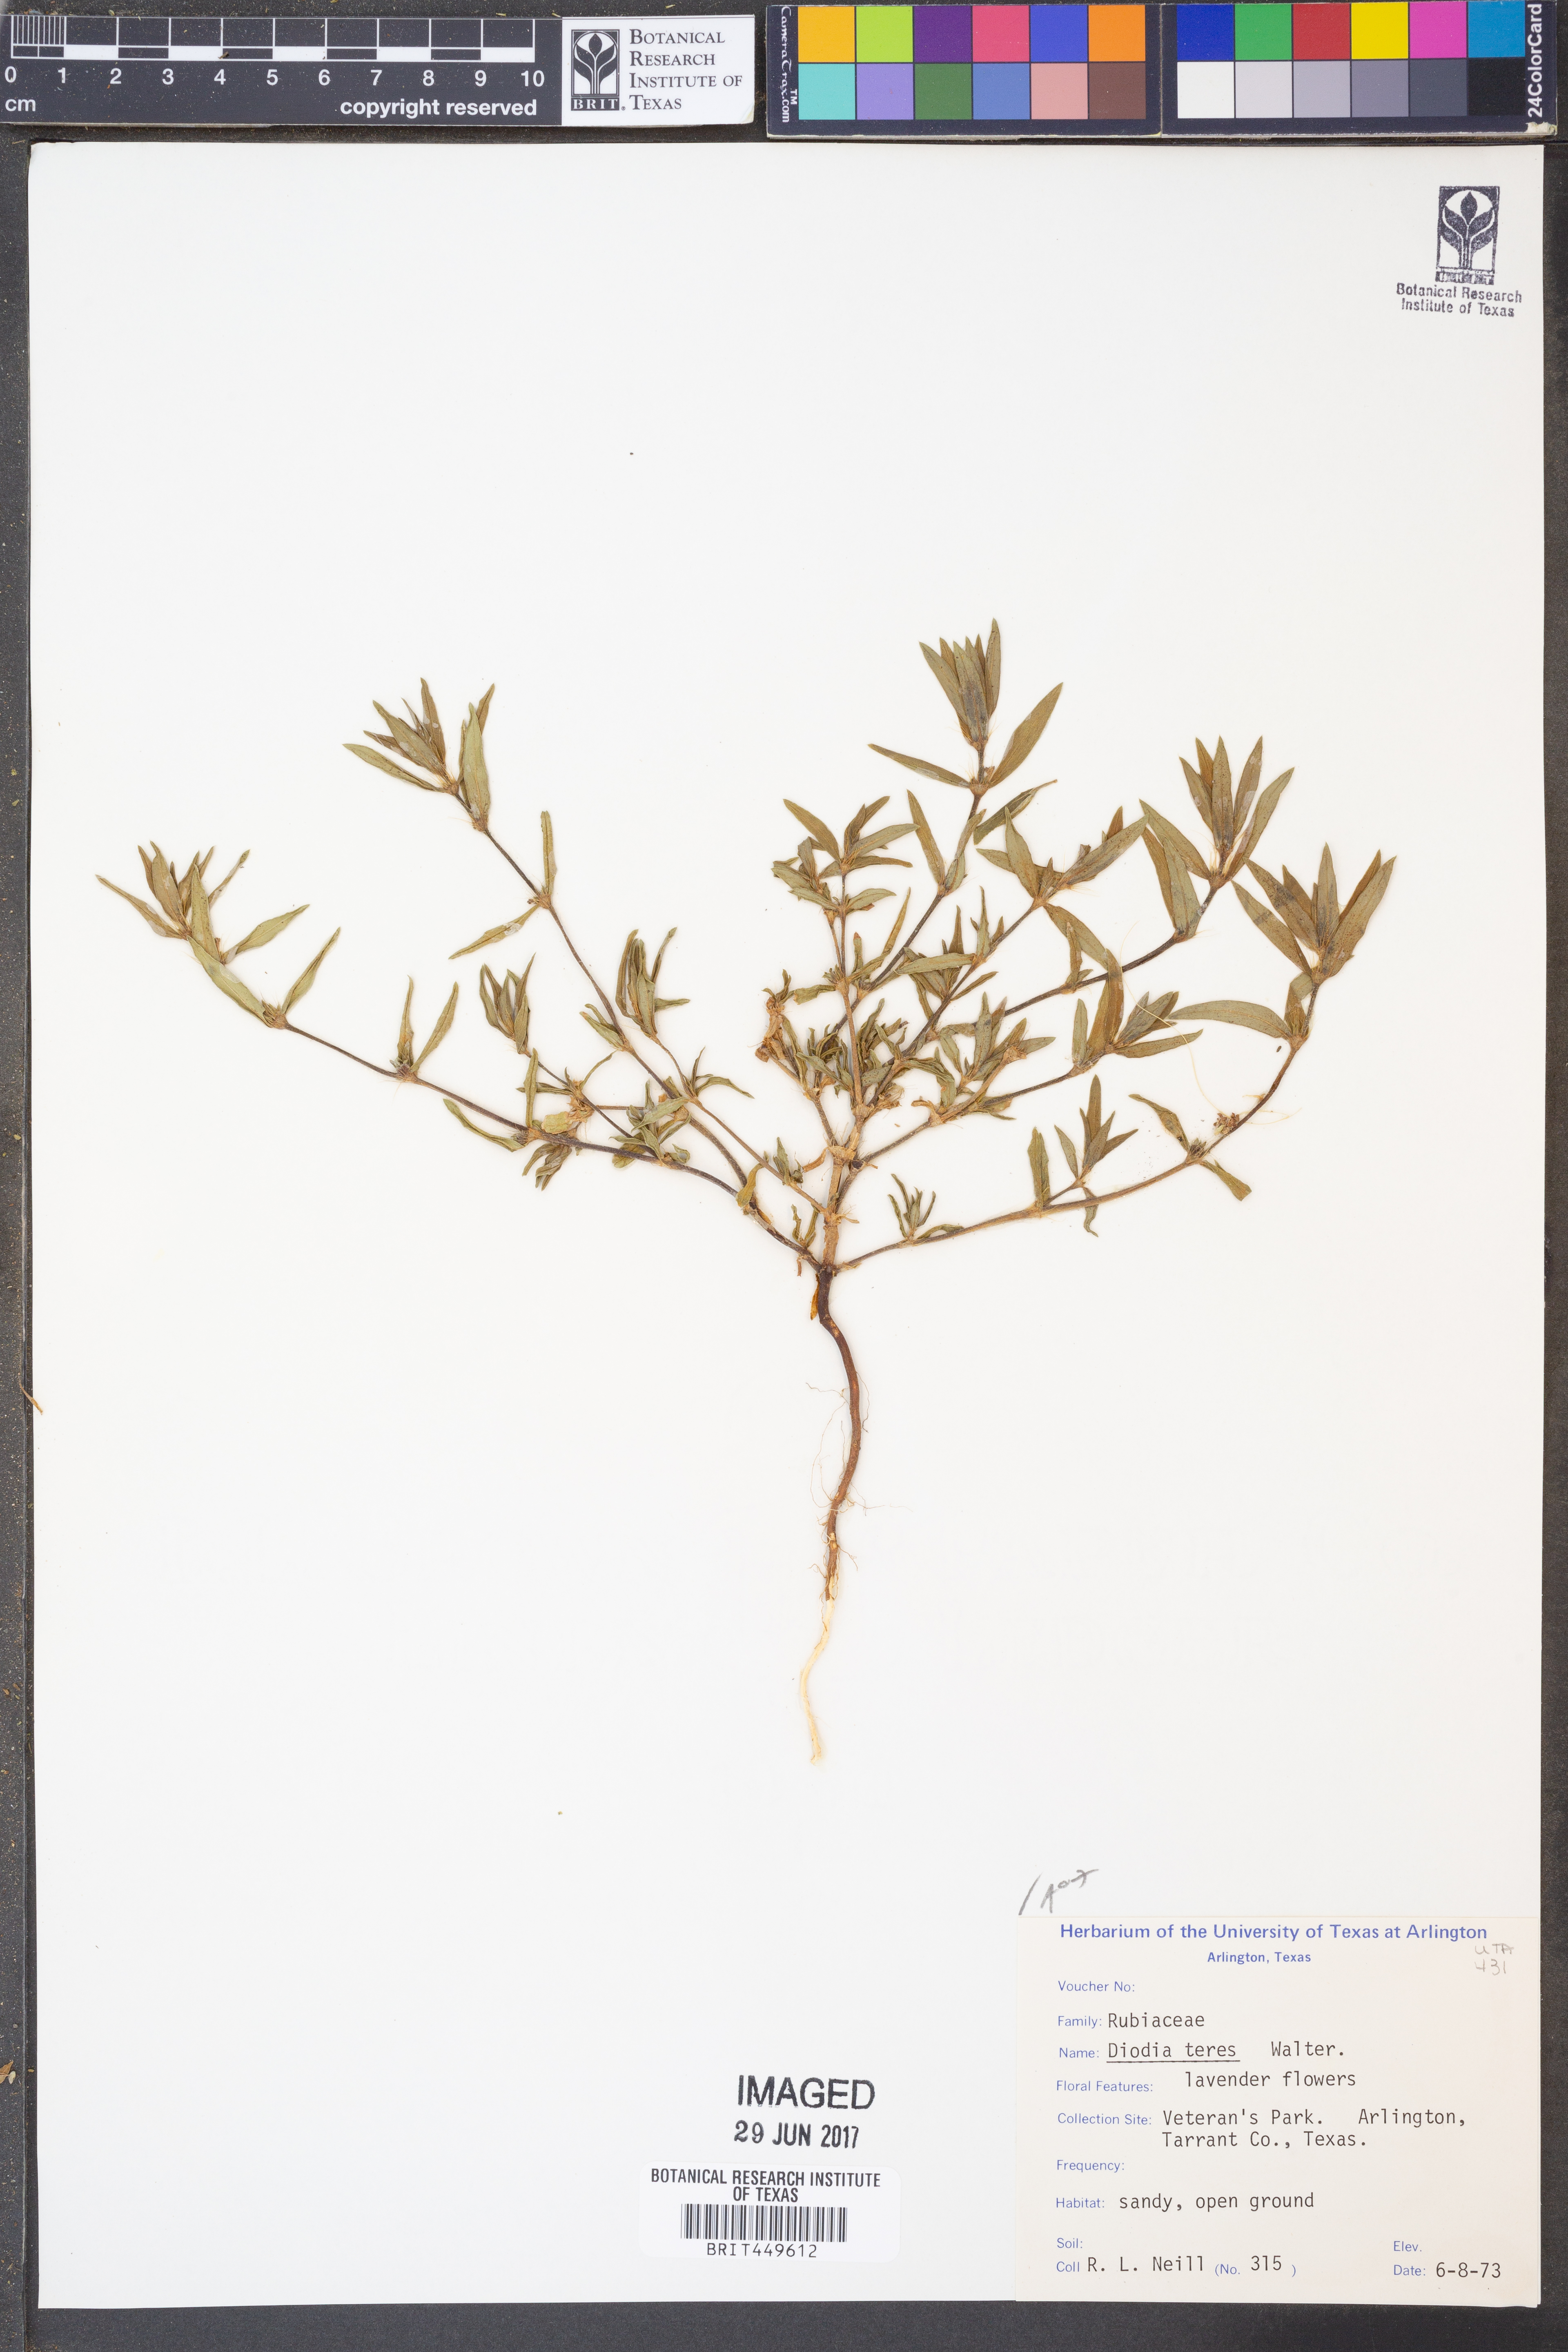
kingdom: Plantae
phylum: Tracheophyta
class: Magnoliopsida
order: Gentianales
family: Rubiaceae
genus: Hexasepalum
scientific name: Hexasepalum teres
